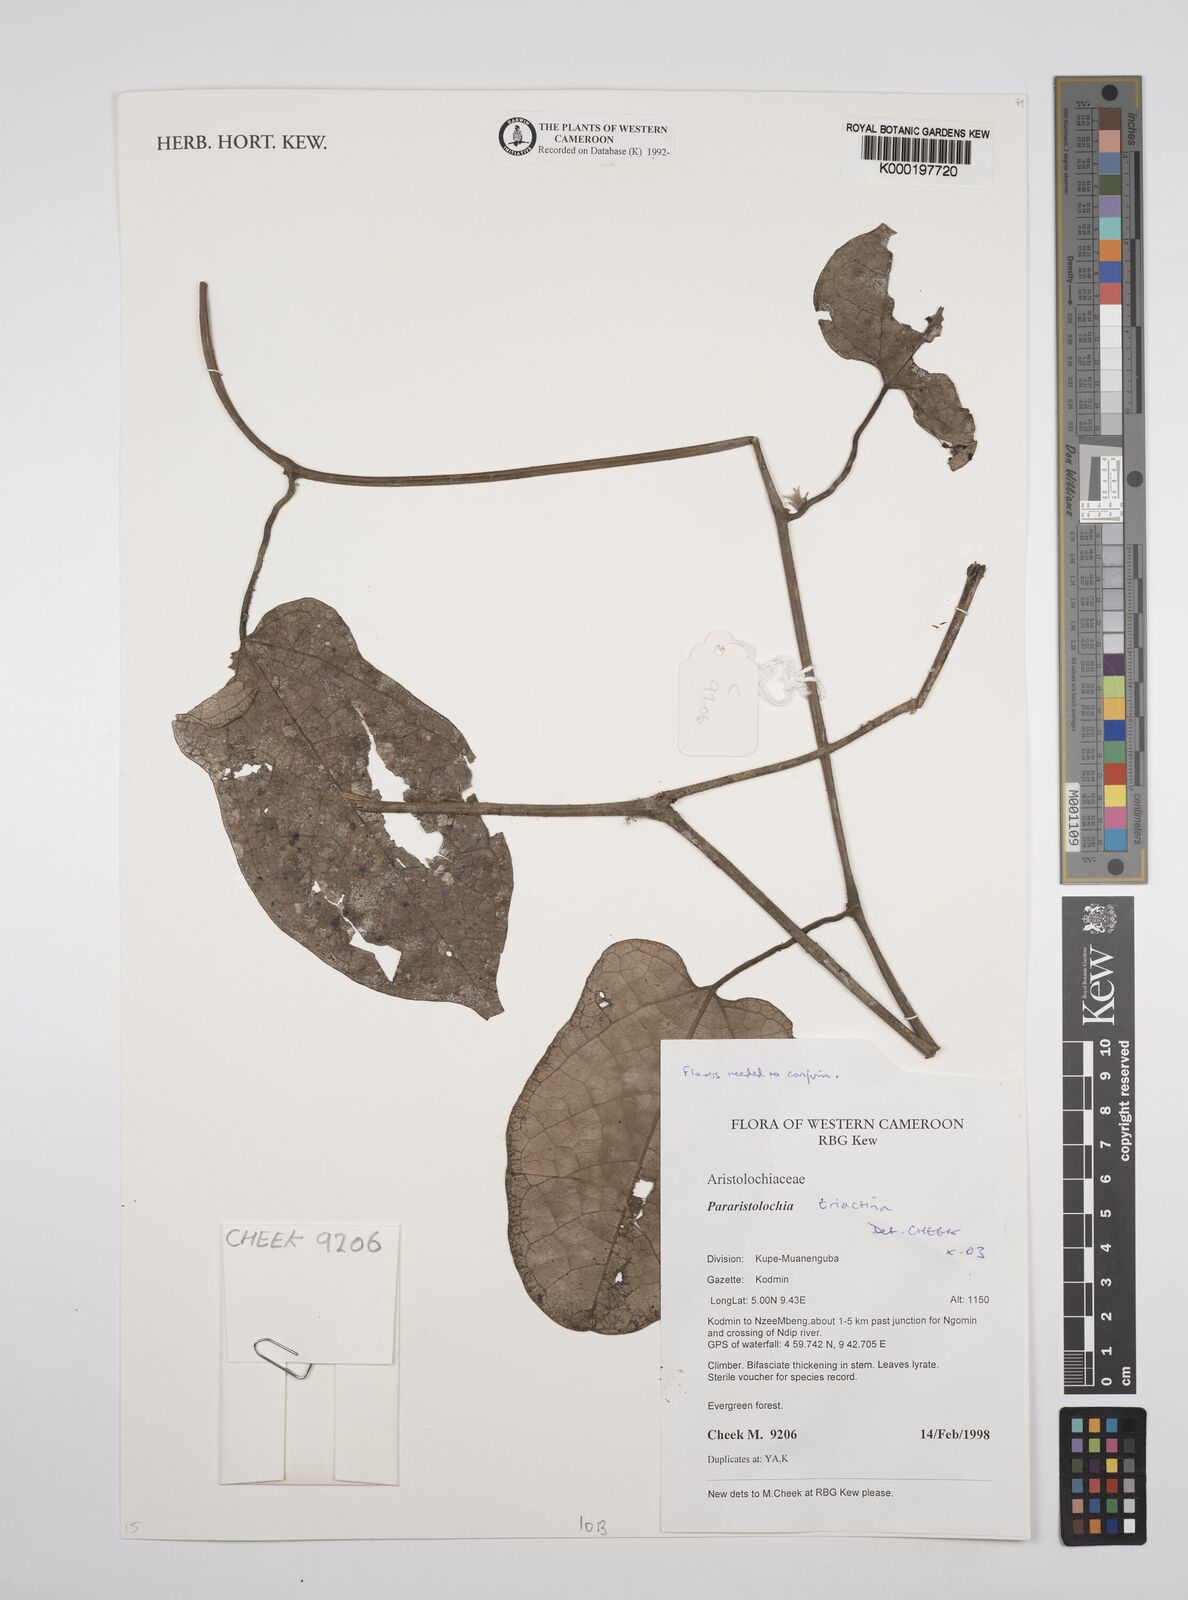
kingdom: Plantae
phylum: Tracheophyta
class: Magnoliopsida
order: Piperales
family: Aristolochiaceae
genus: Aristolochia
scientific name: Aristolochia triactina
